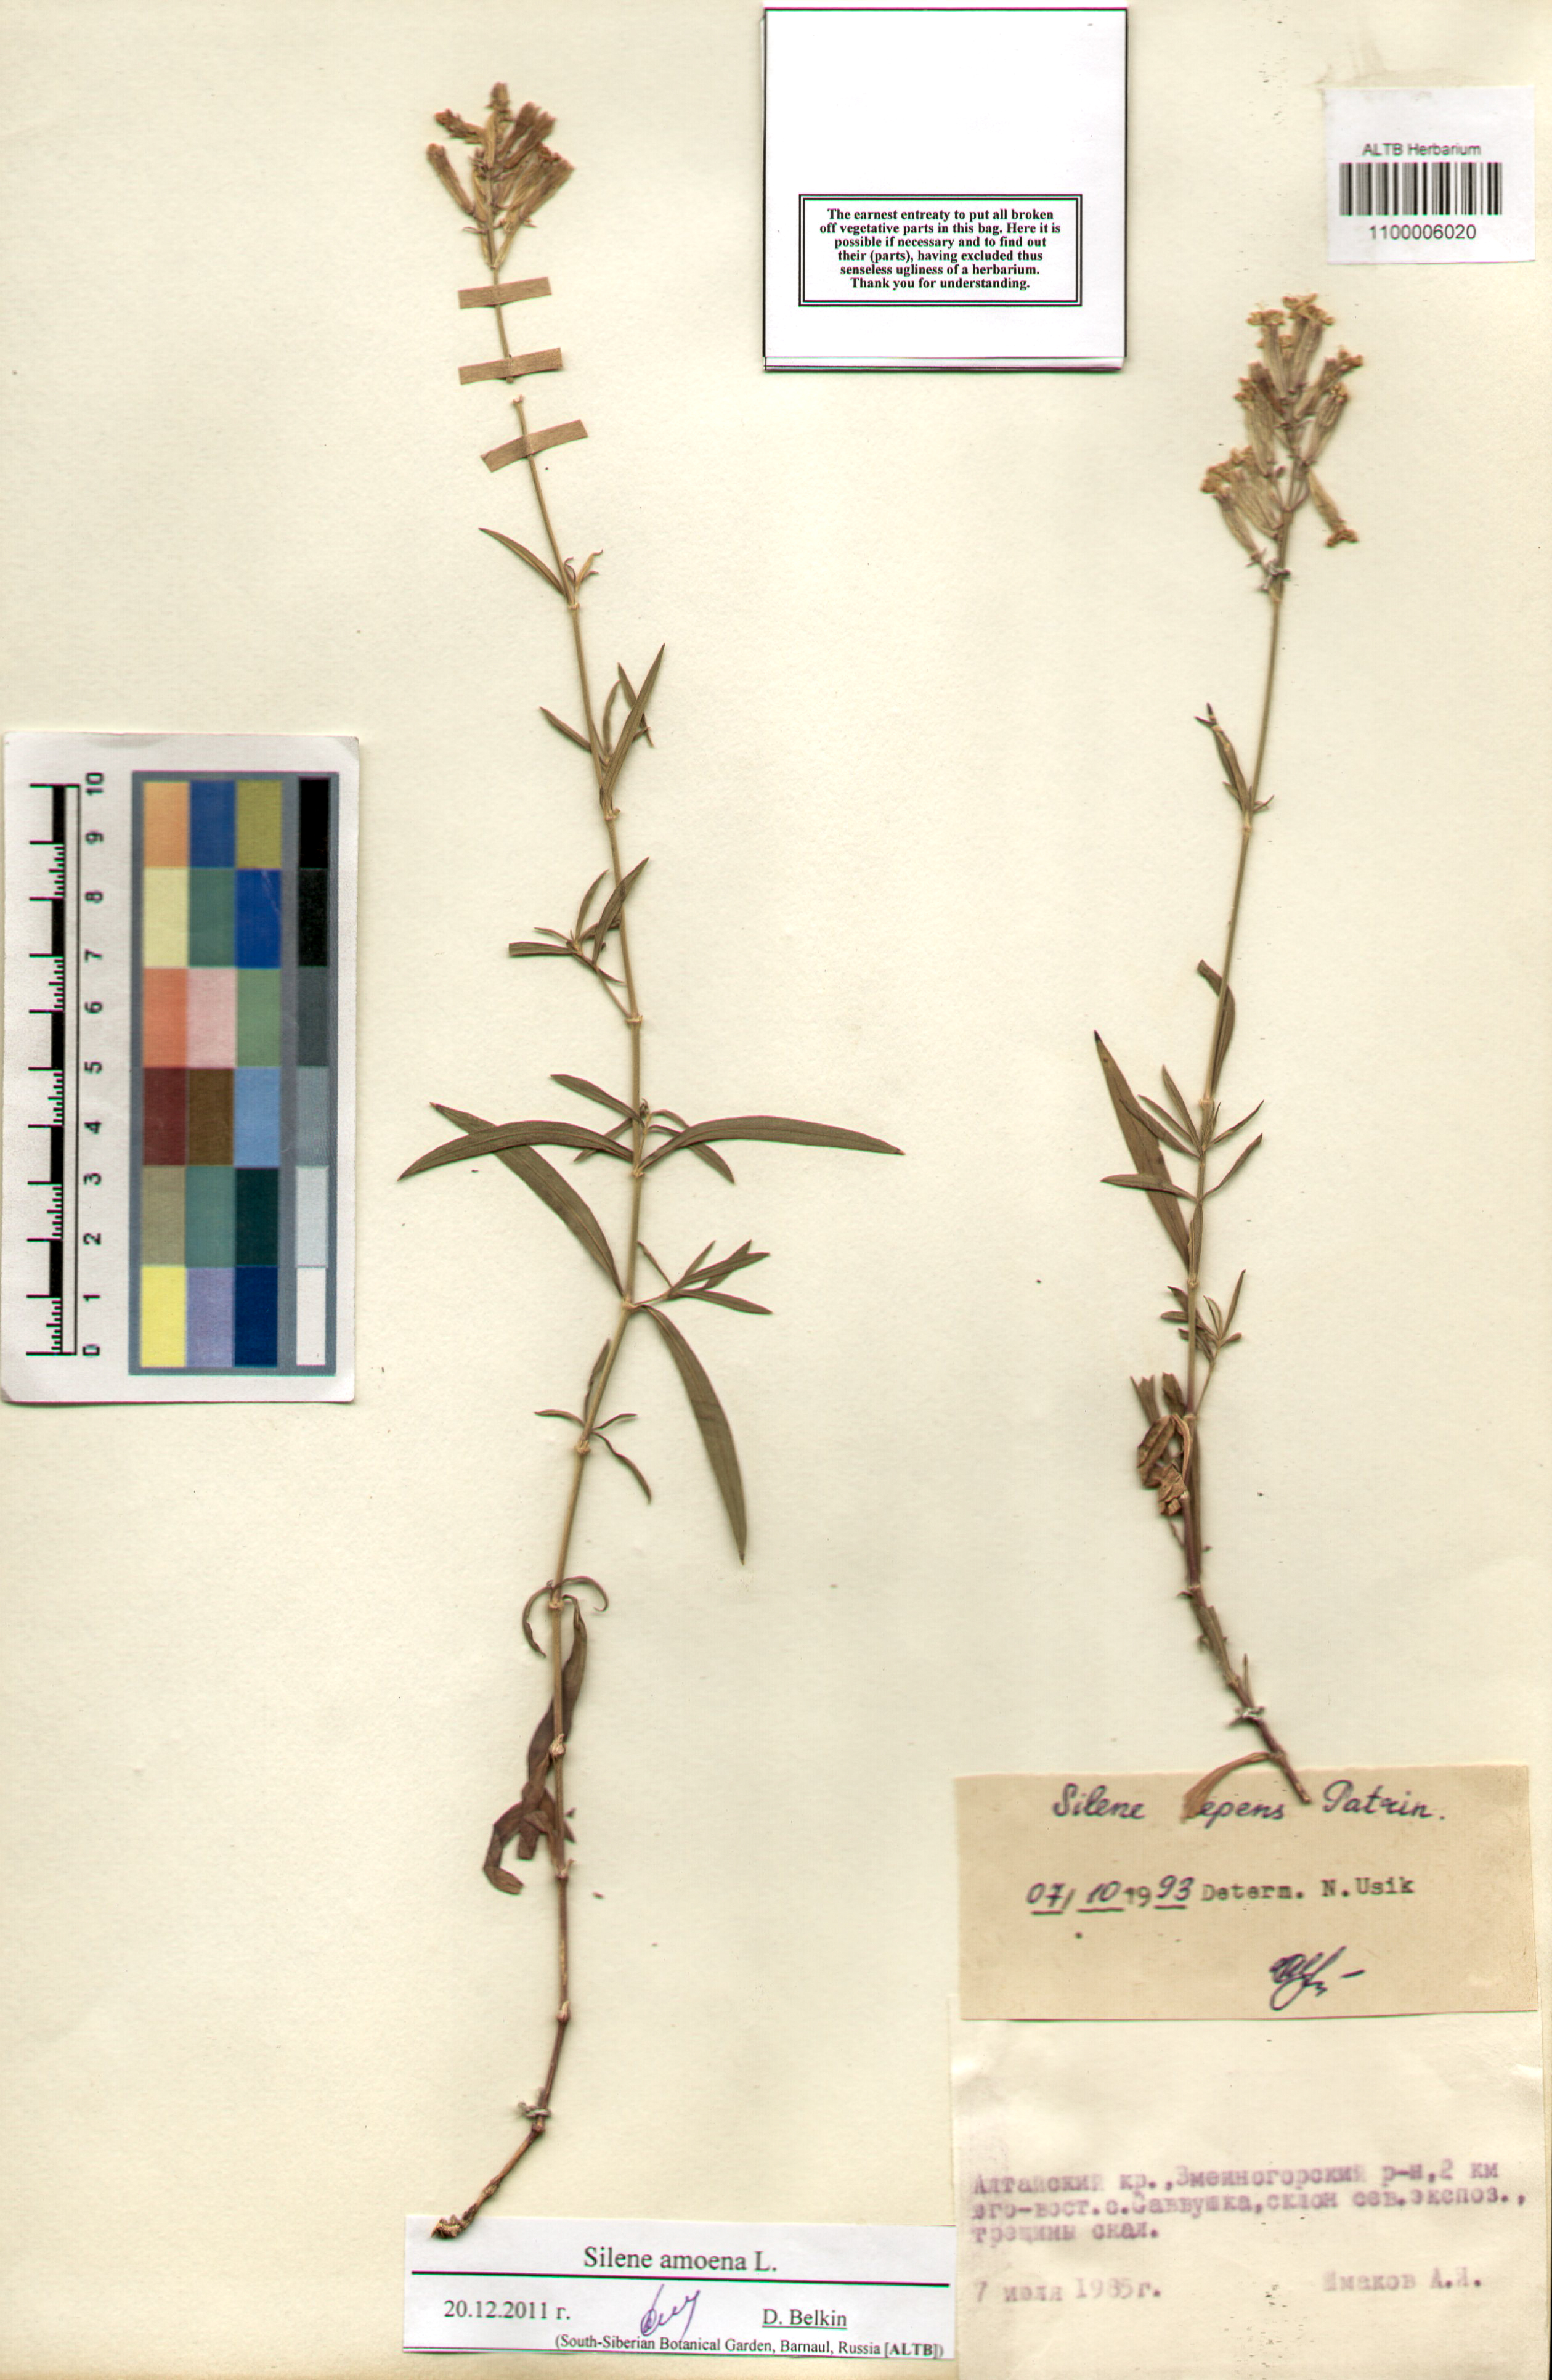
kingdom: Plantae
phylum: Tracheophyta
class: Magnoliopsida
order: Caryophyllales
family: Caryophyllaceae
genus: Silene
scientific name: Silene amoena
